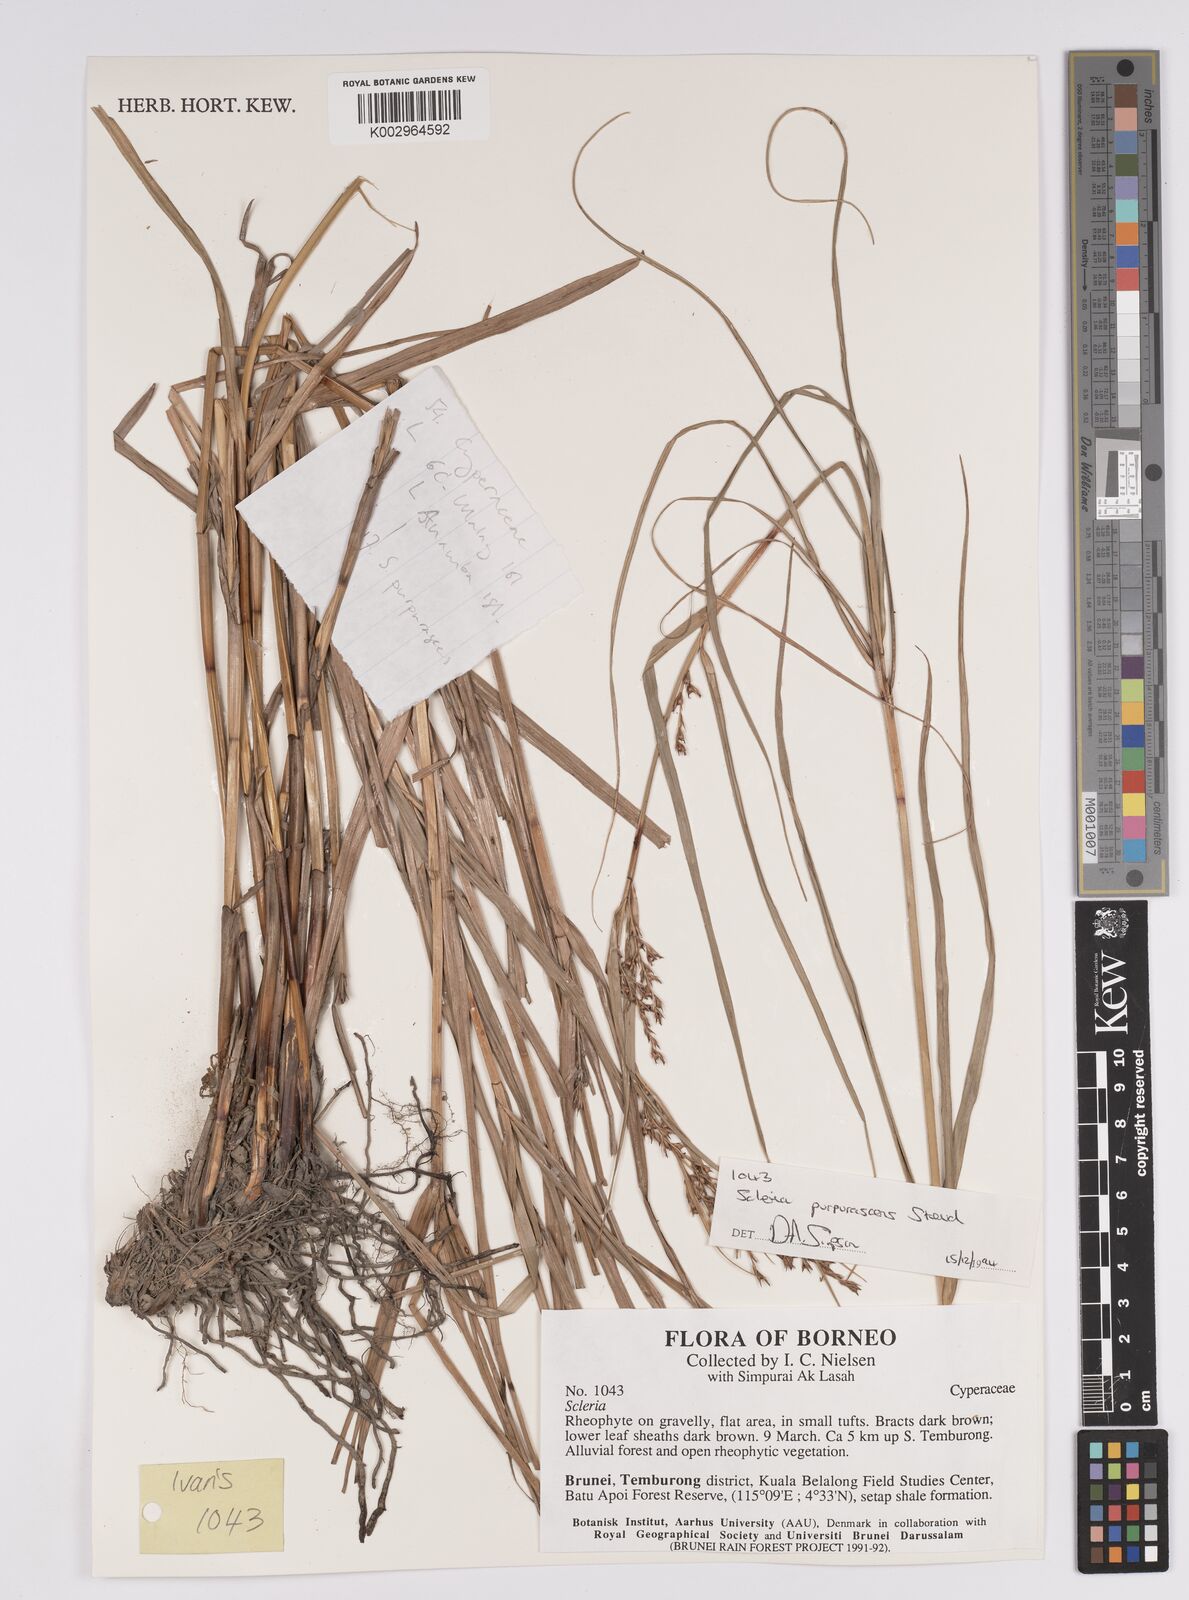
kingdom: Plantae
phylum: Tracheophyta
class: Liliopsida
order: Poales
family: Cyperaceae
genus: Scleria
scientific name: Scleria purpurascens
